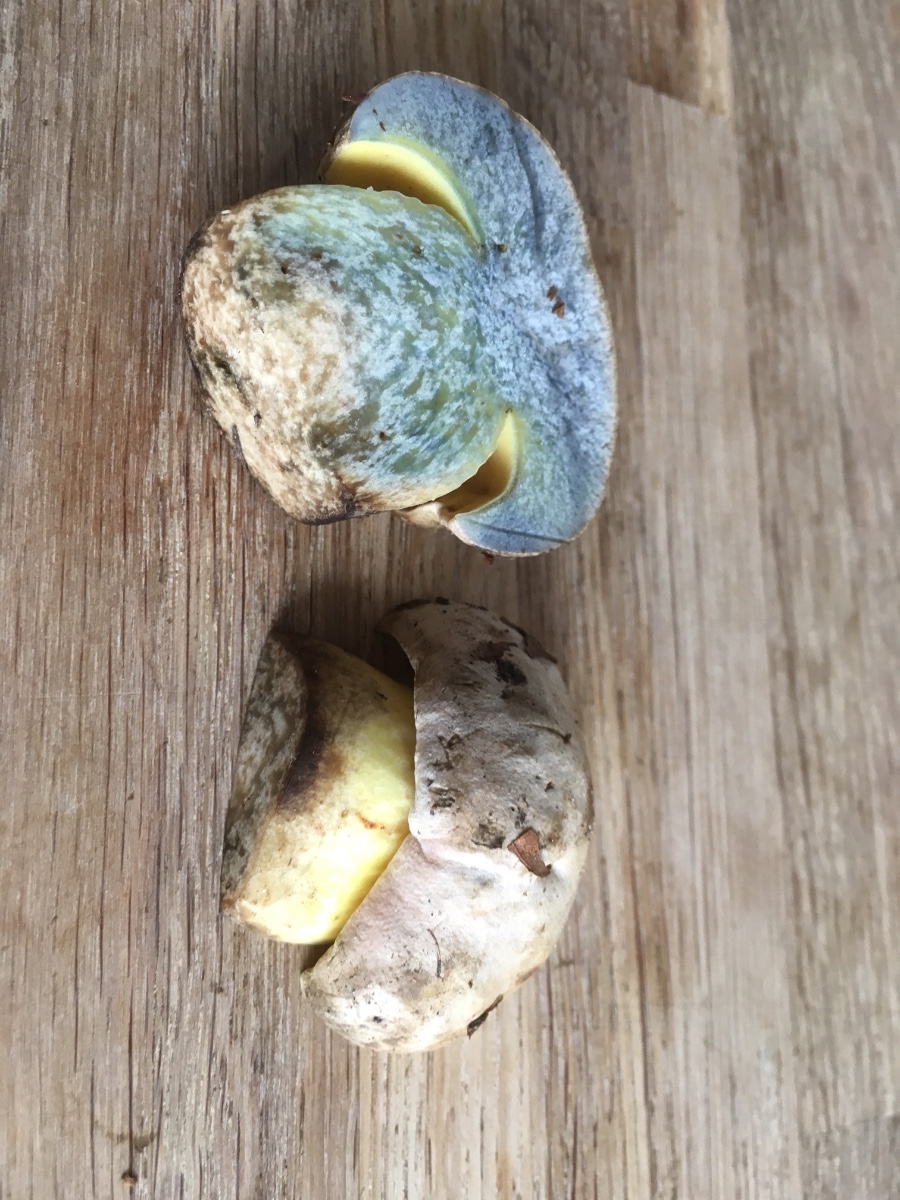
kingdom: Fungi
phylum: Basidiomycota
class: Agaricomycetes
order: Boletales
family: Boletaceae
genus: Caloboletus
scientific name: Caloboletus radicans
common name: rod-rørhat
